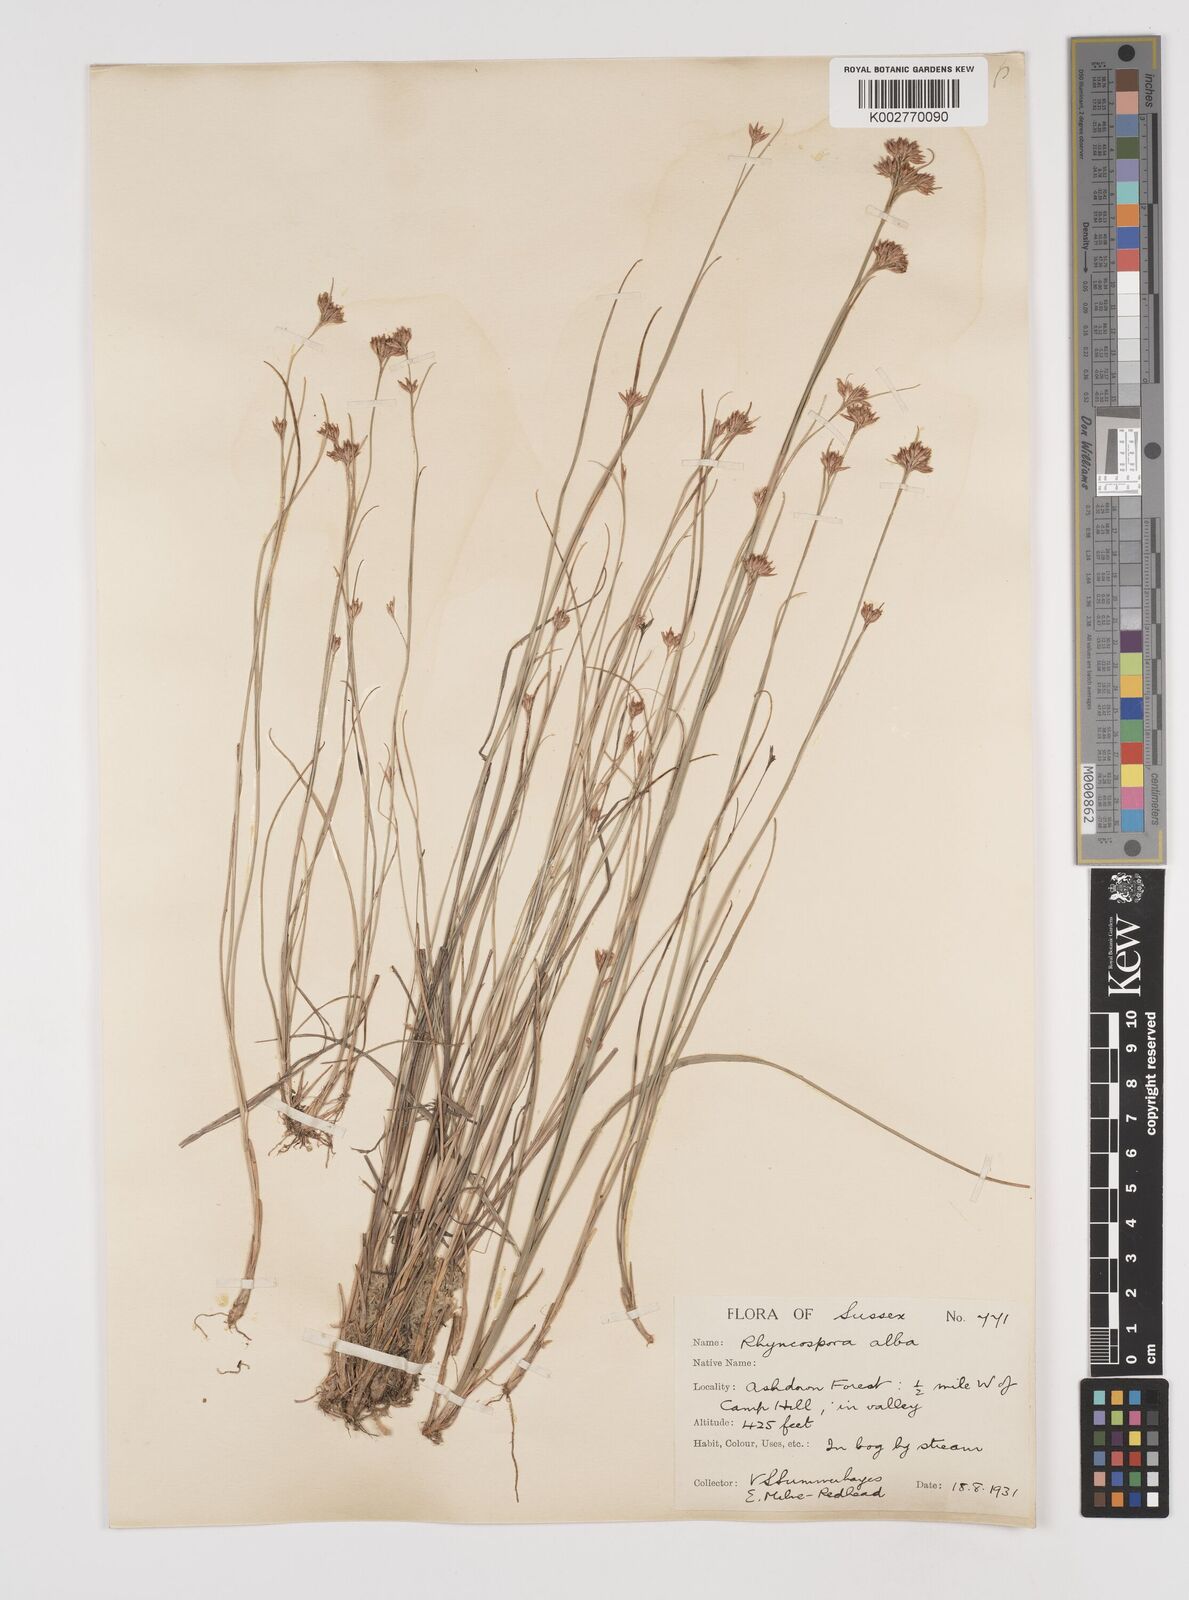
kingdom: Plantae
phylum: Tracheophyta
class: Liliopsida
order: Poales
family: Cyperaceae
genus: Rhynchospora
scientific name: Rhynchospora alba
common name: White beak-sedge
